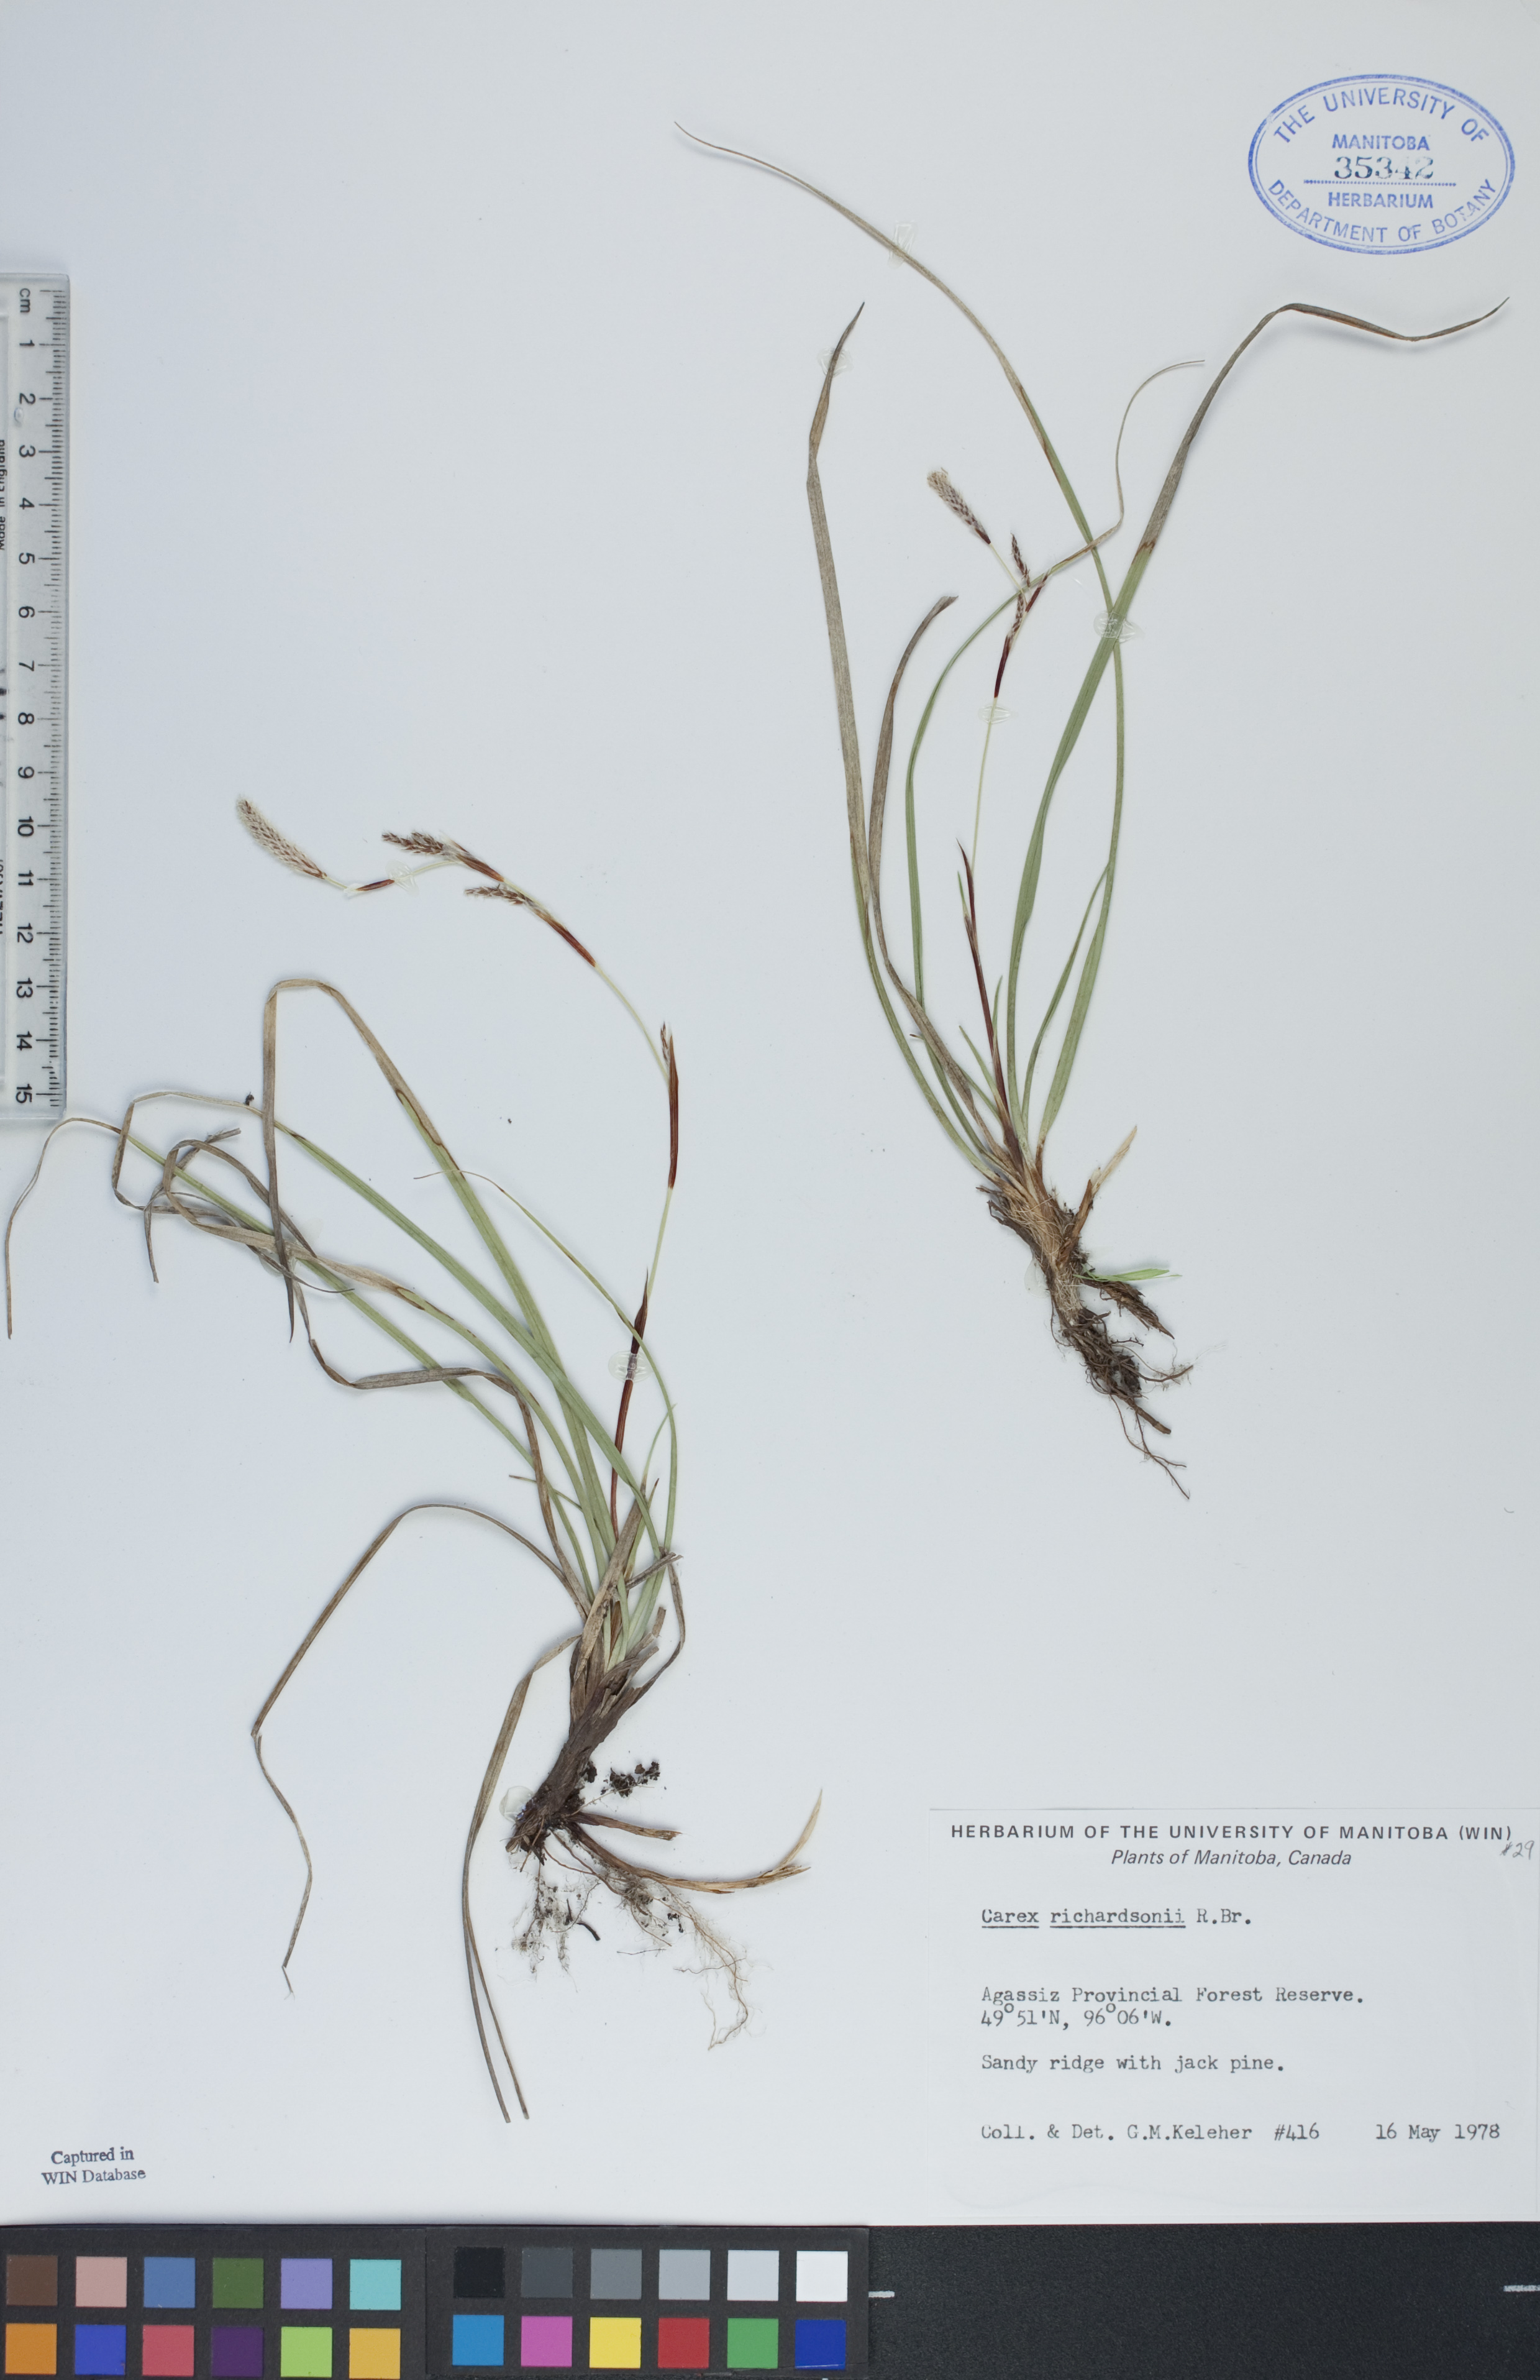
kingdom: Plantae
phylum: Tracheophyta
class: Liliopsida
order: Poales
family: Cyperaceae
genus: Carex
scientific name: Carex richardsonii
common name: Prairie hummock sedge
